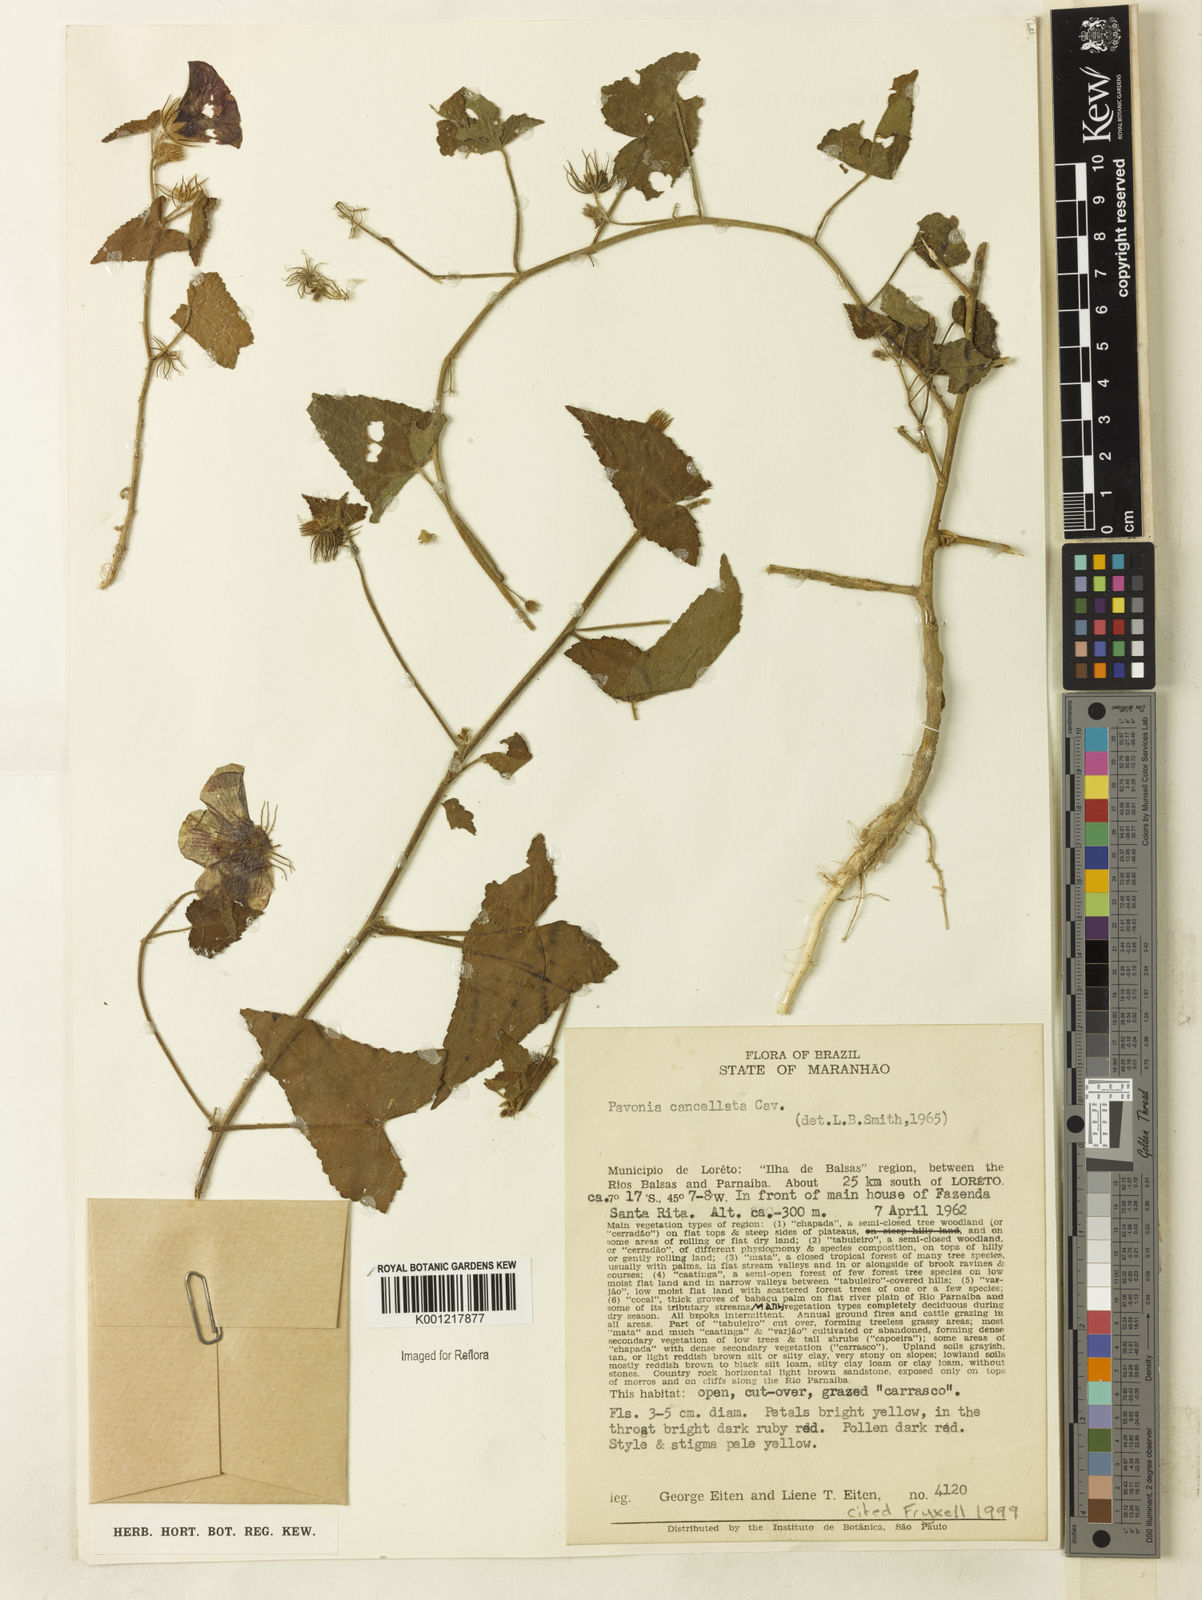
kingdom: Plantae
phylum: Tracheophyta
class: Magnoliopsida
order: Malvales
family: Malvaceae
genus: Pavonia
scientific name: Pavonia cancellata
